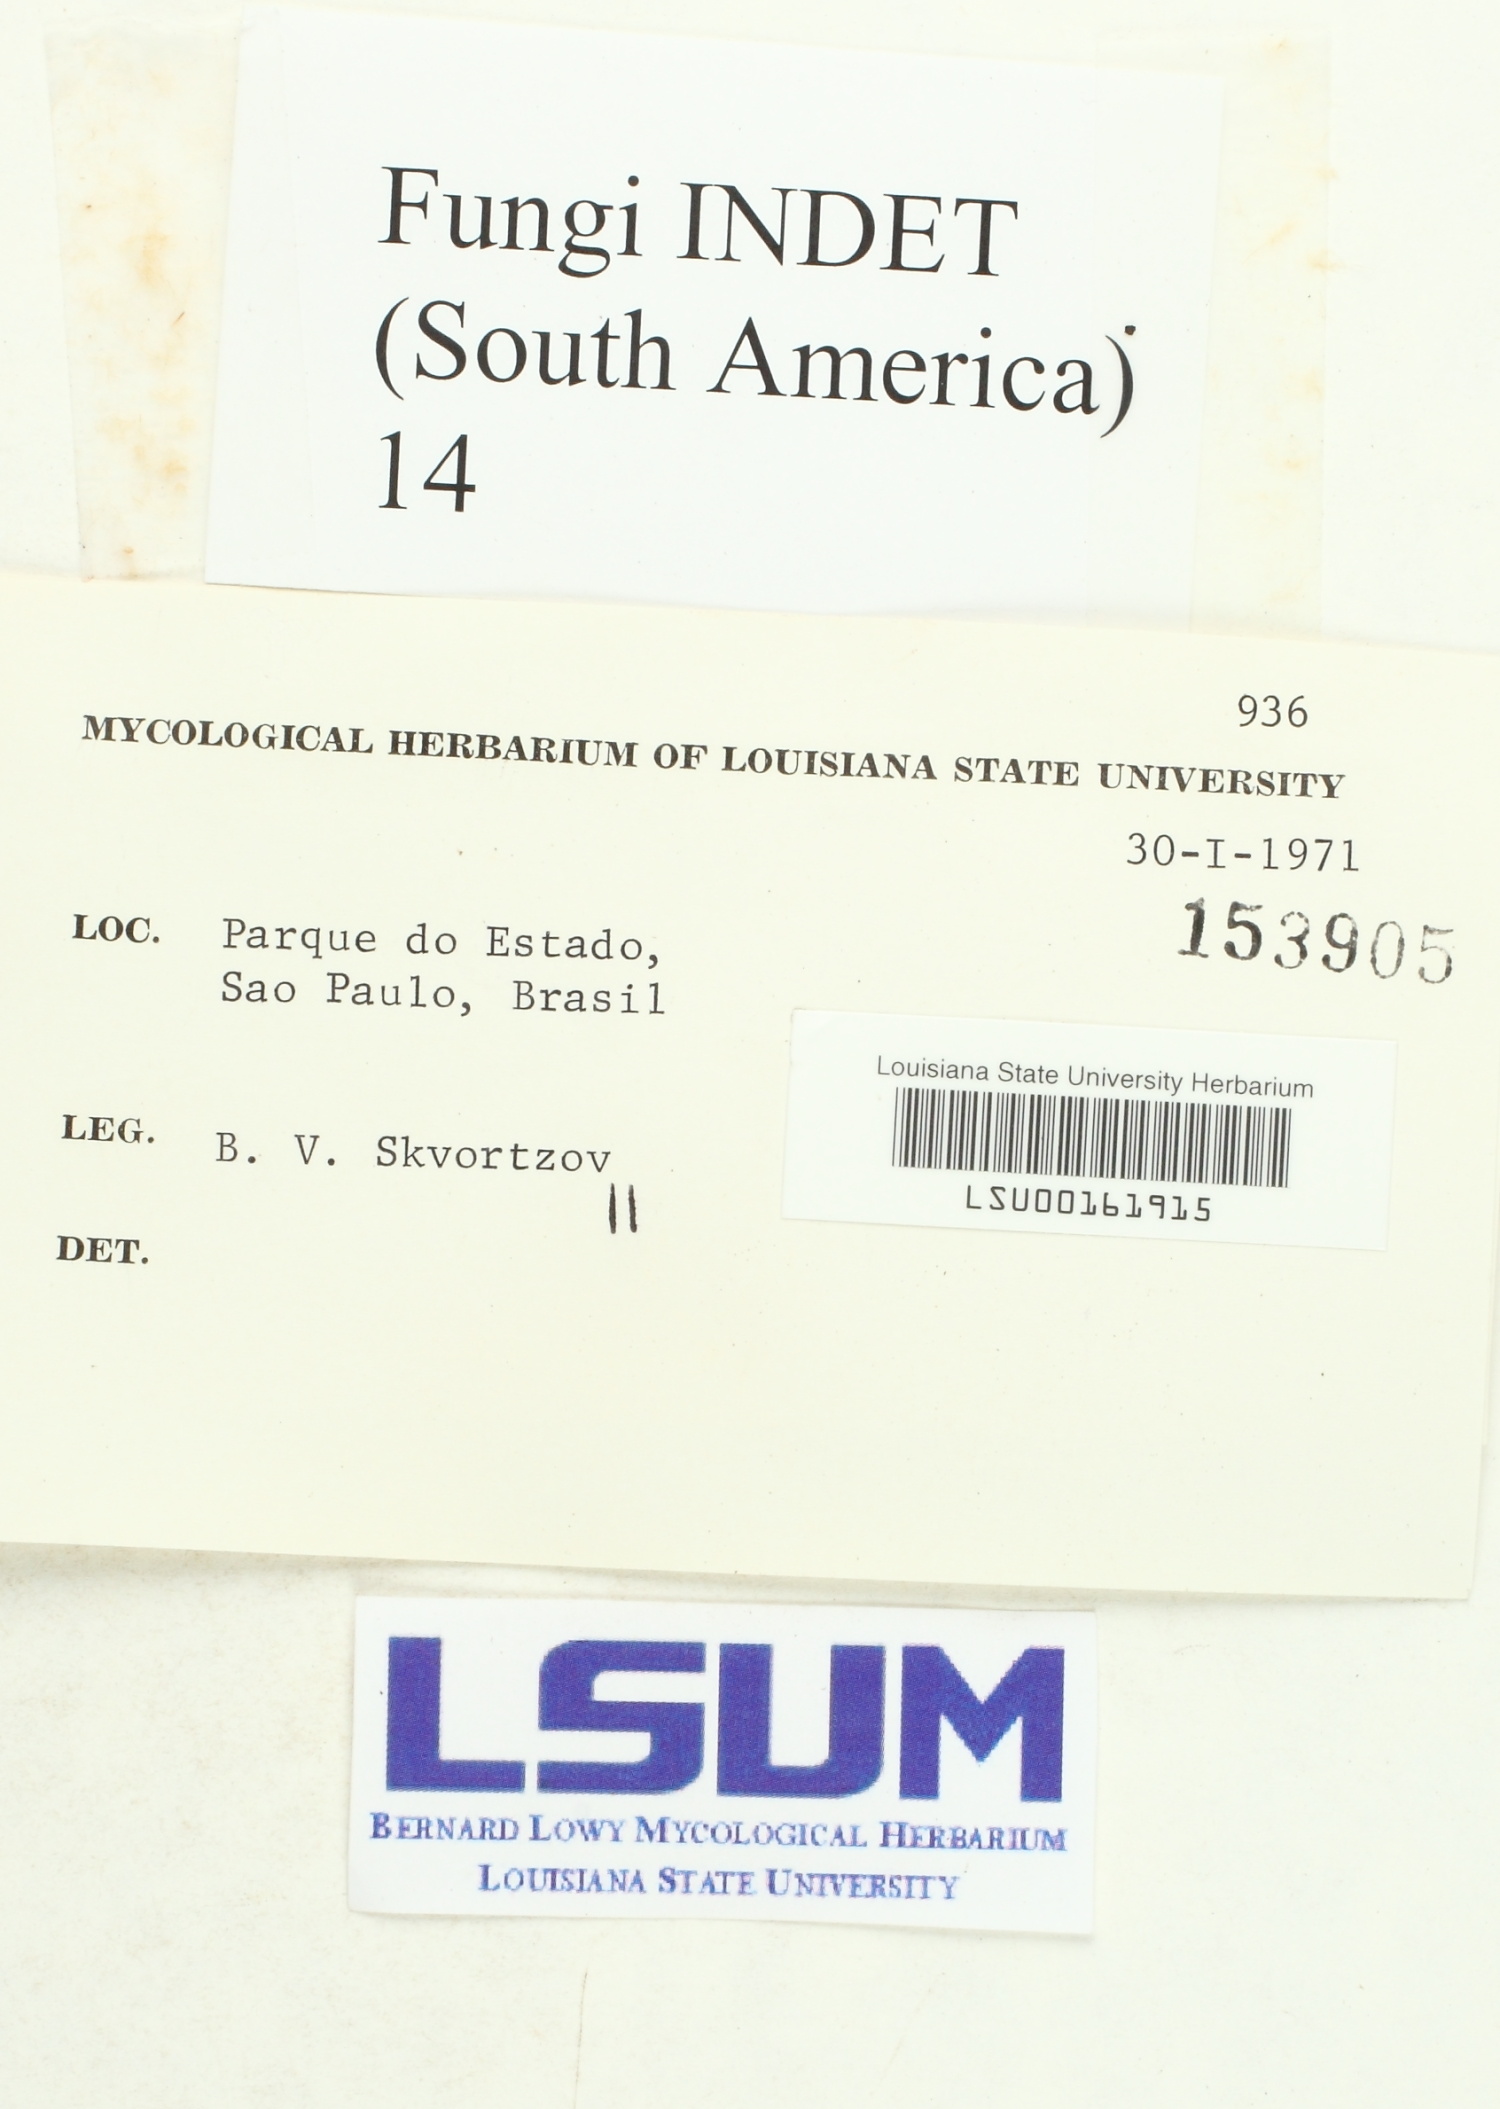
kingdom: Fungi
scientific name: Fungi
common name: Fungi
